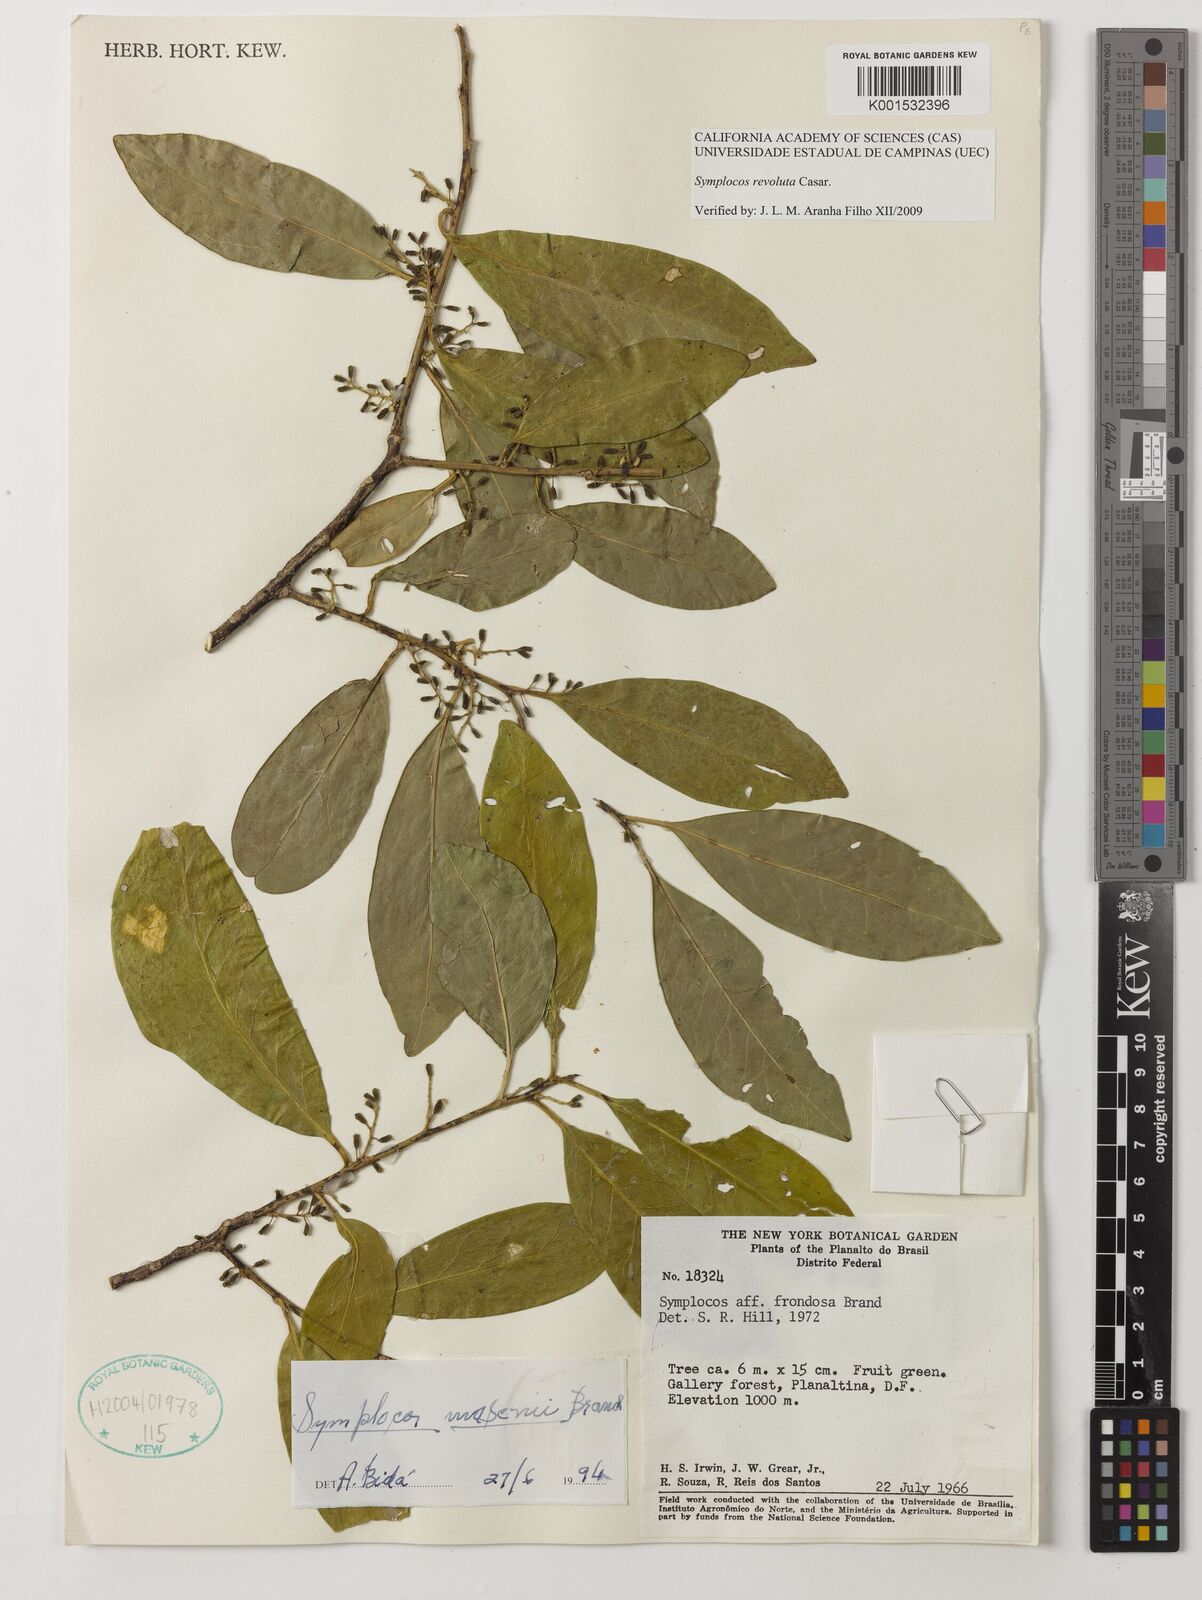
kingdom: Plantae
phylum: Tracheophyta
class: Magnoliopsida
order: Ericales
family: Symplocaceae
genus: Symplocos
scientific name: Symplocos revoluta
